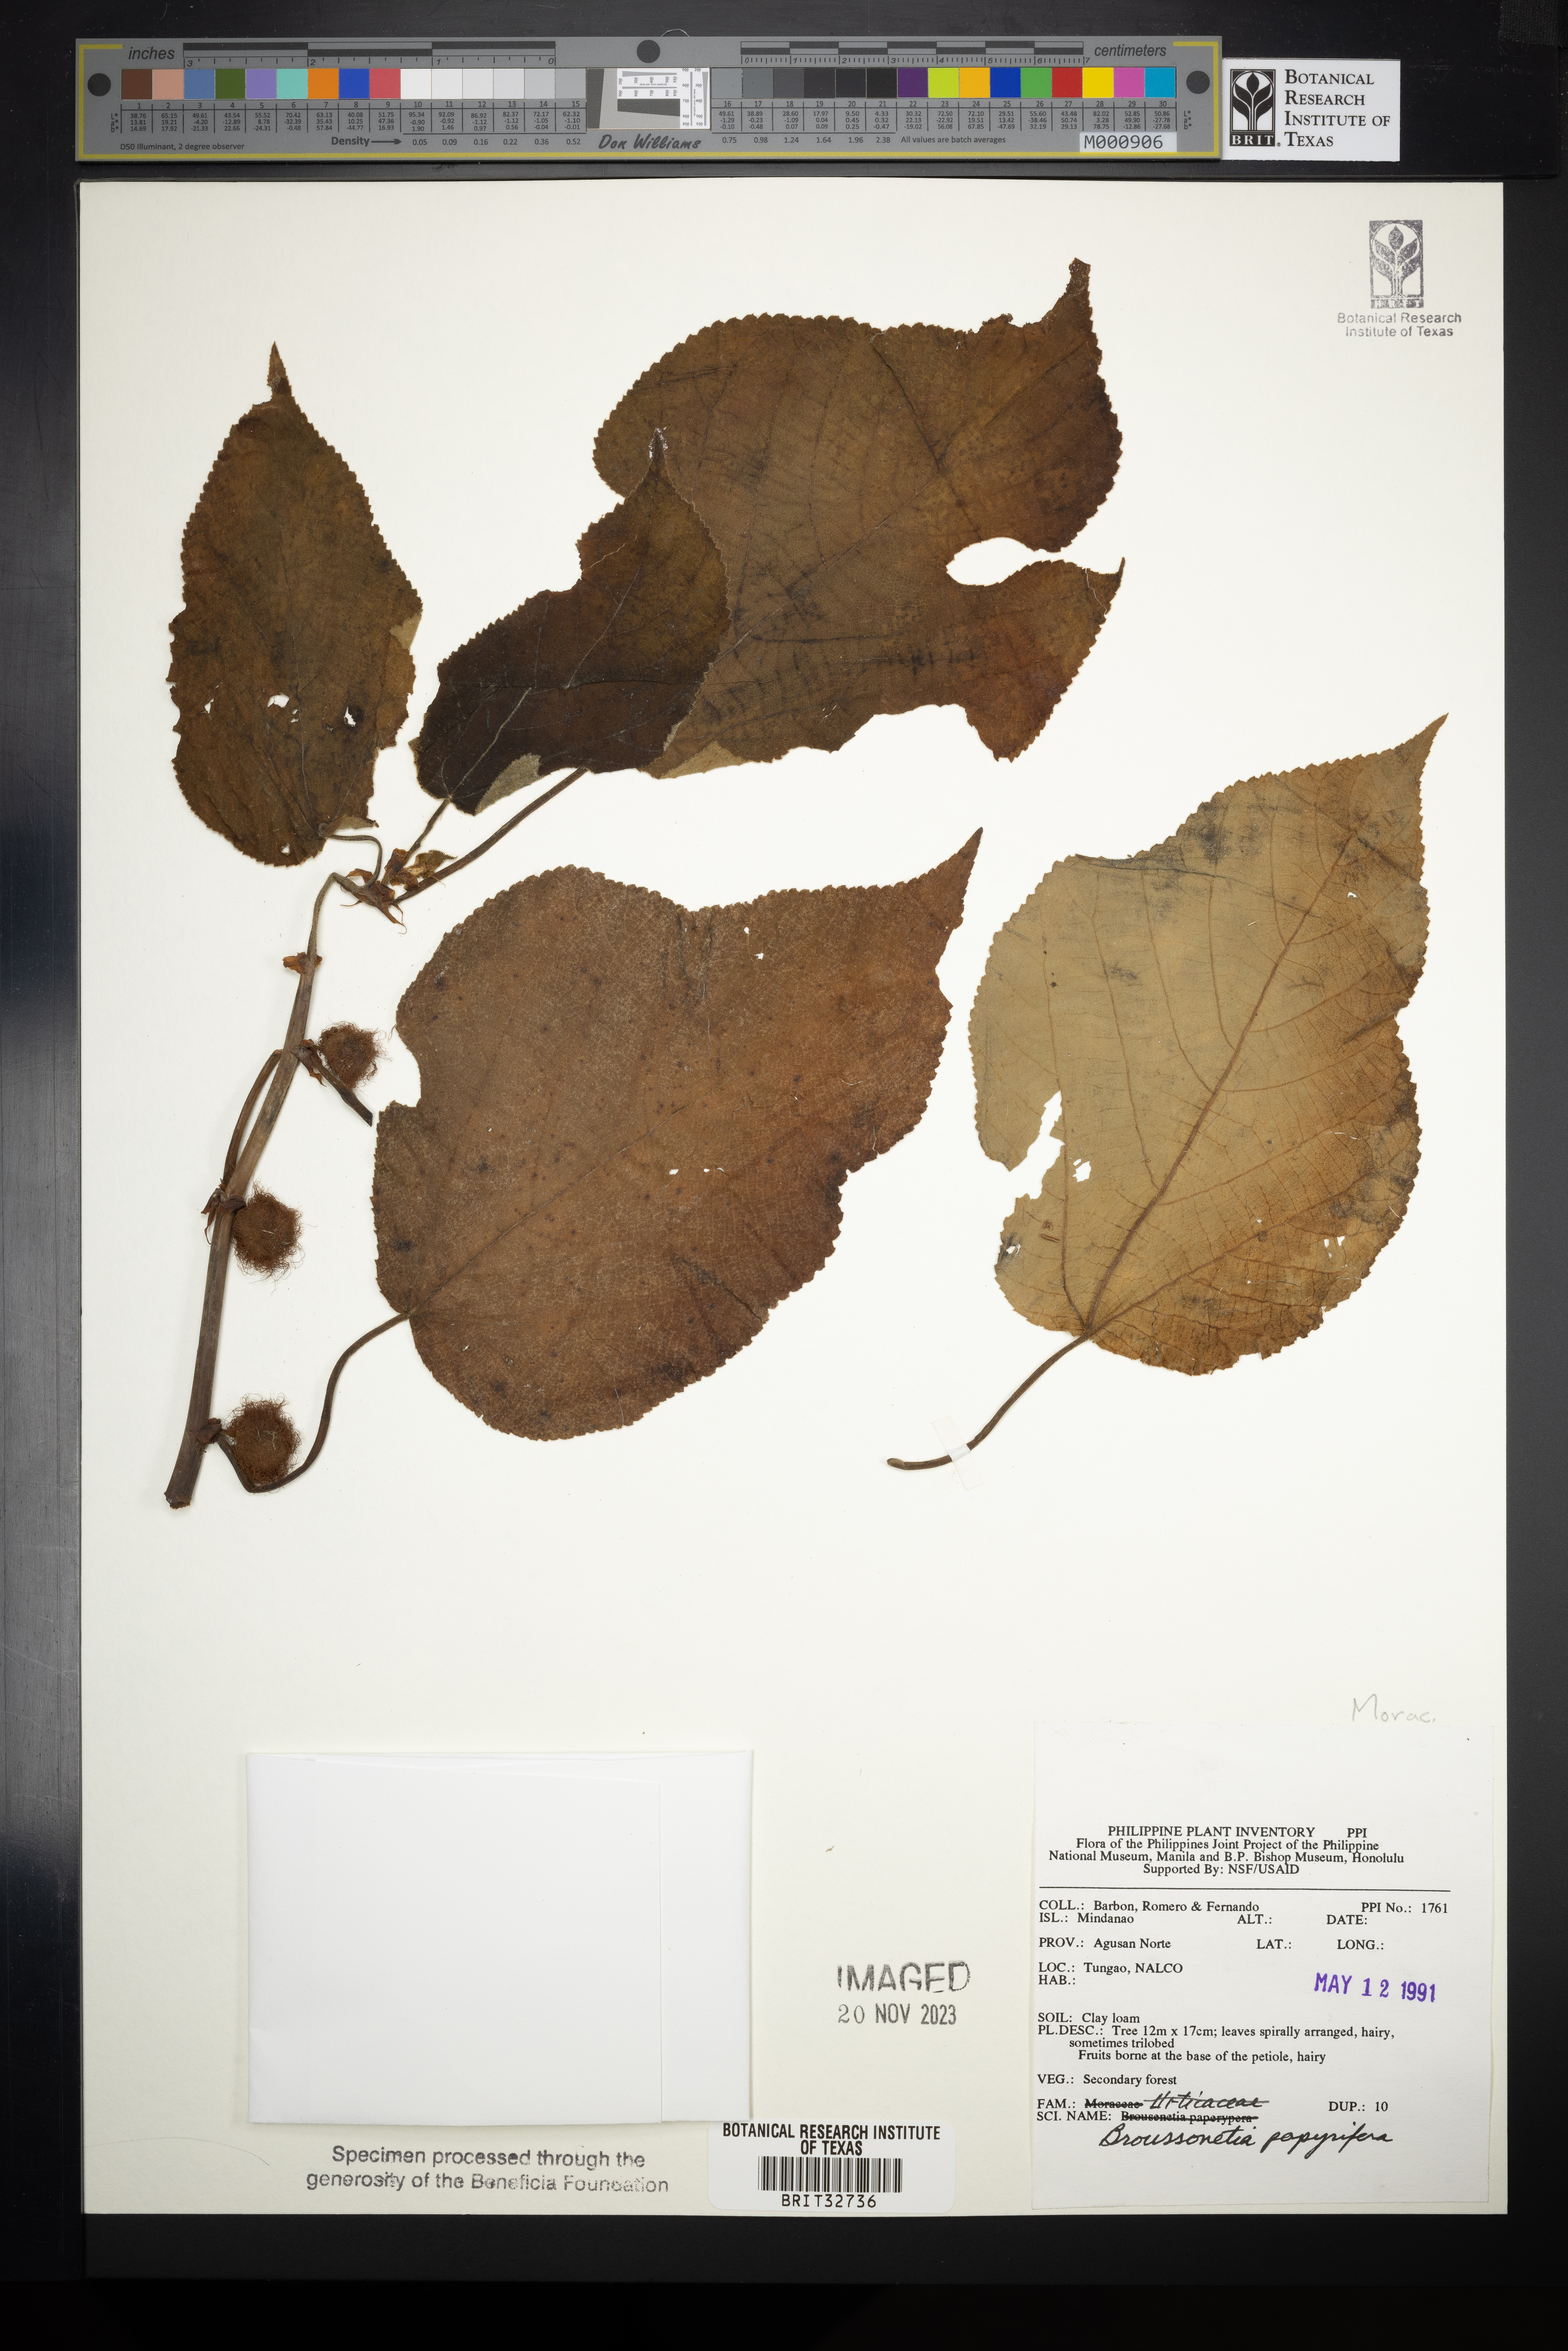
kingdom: Plantae
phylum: Tracheophyta
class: Magnoliopsida
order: Rosales
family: Moraceae
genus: Broussonetia
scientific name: Broussonetia papyrifera
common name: Paper mulberry
